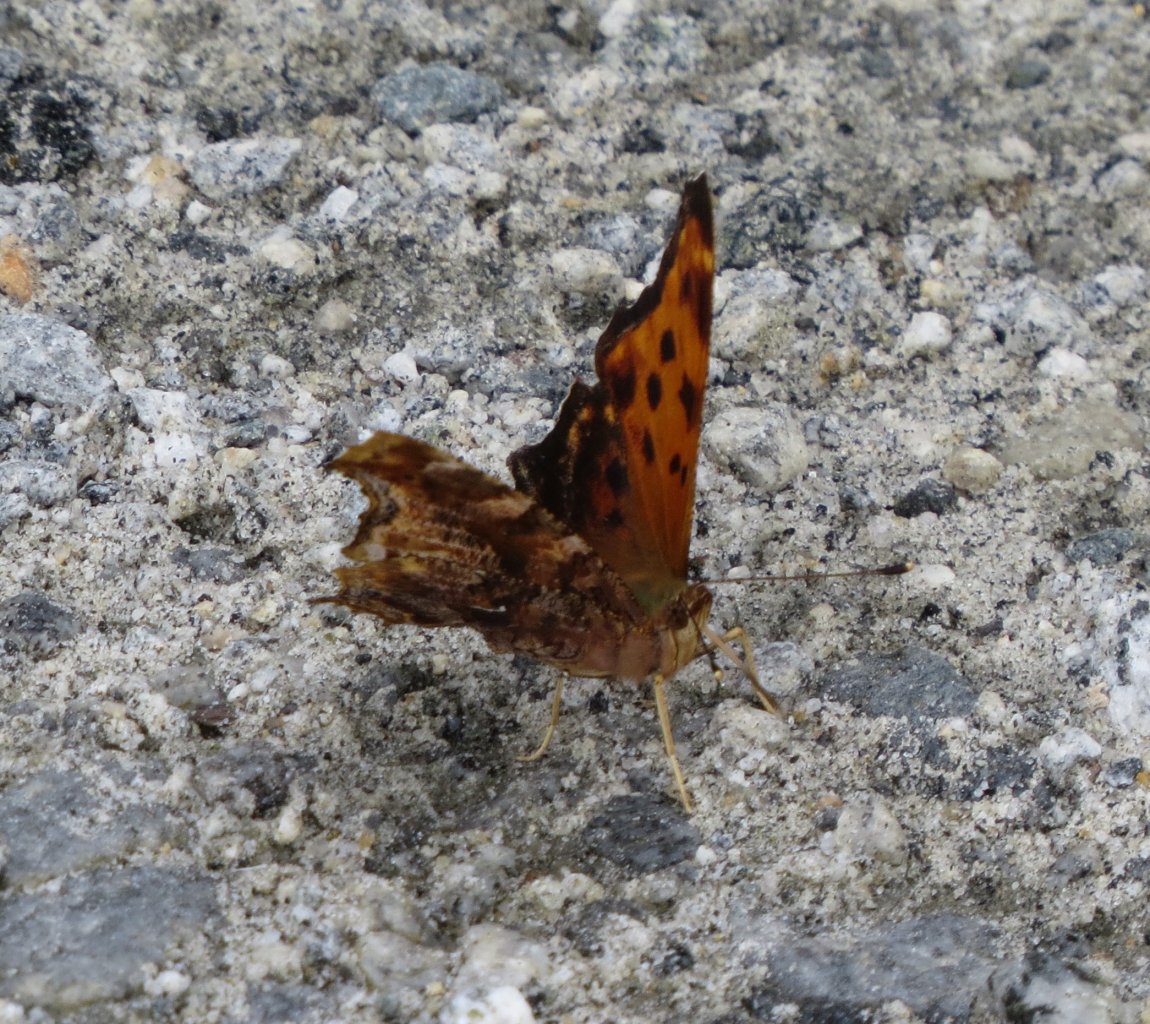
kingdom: Animalia
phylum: Arthropoda
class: Insecta
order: Lepidoptera
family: Nymphalidae
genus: Polygonia
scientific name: Polygonia comma
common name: Eastern Comma
